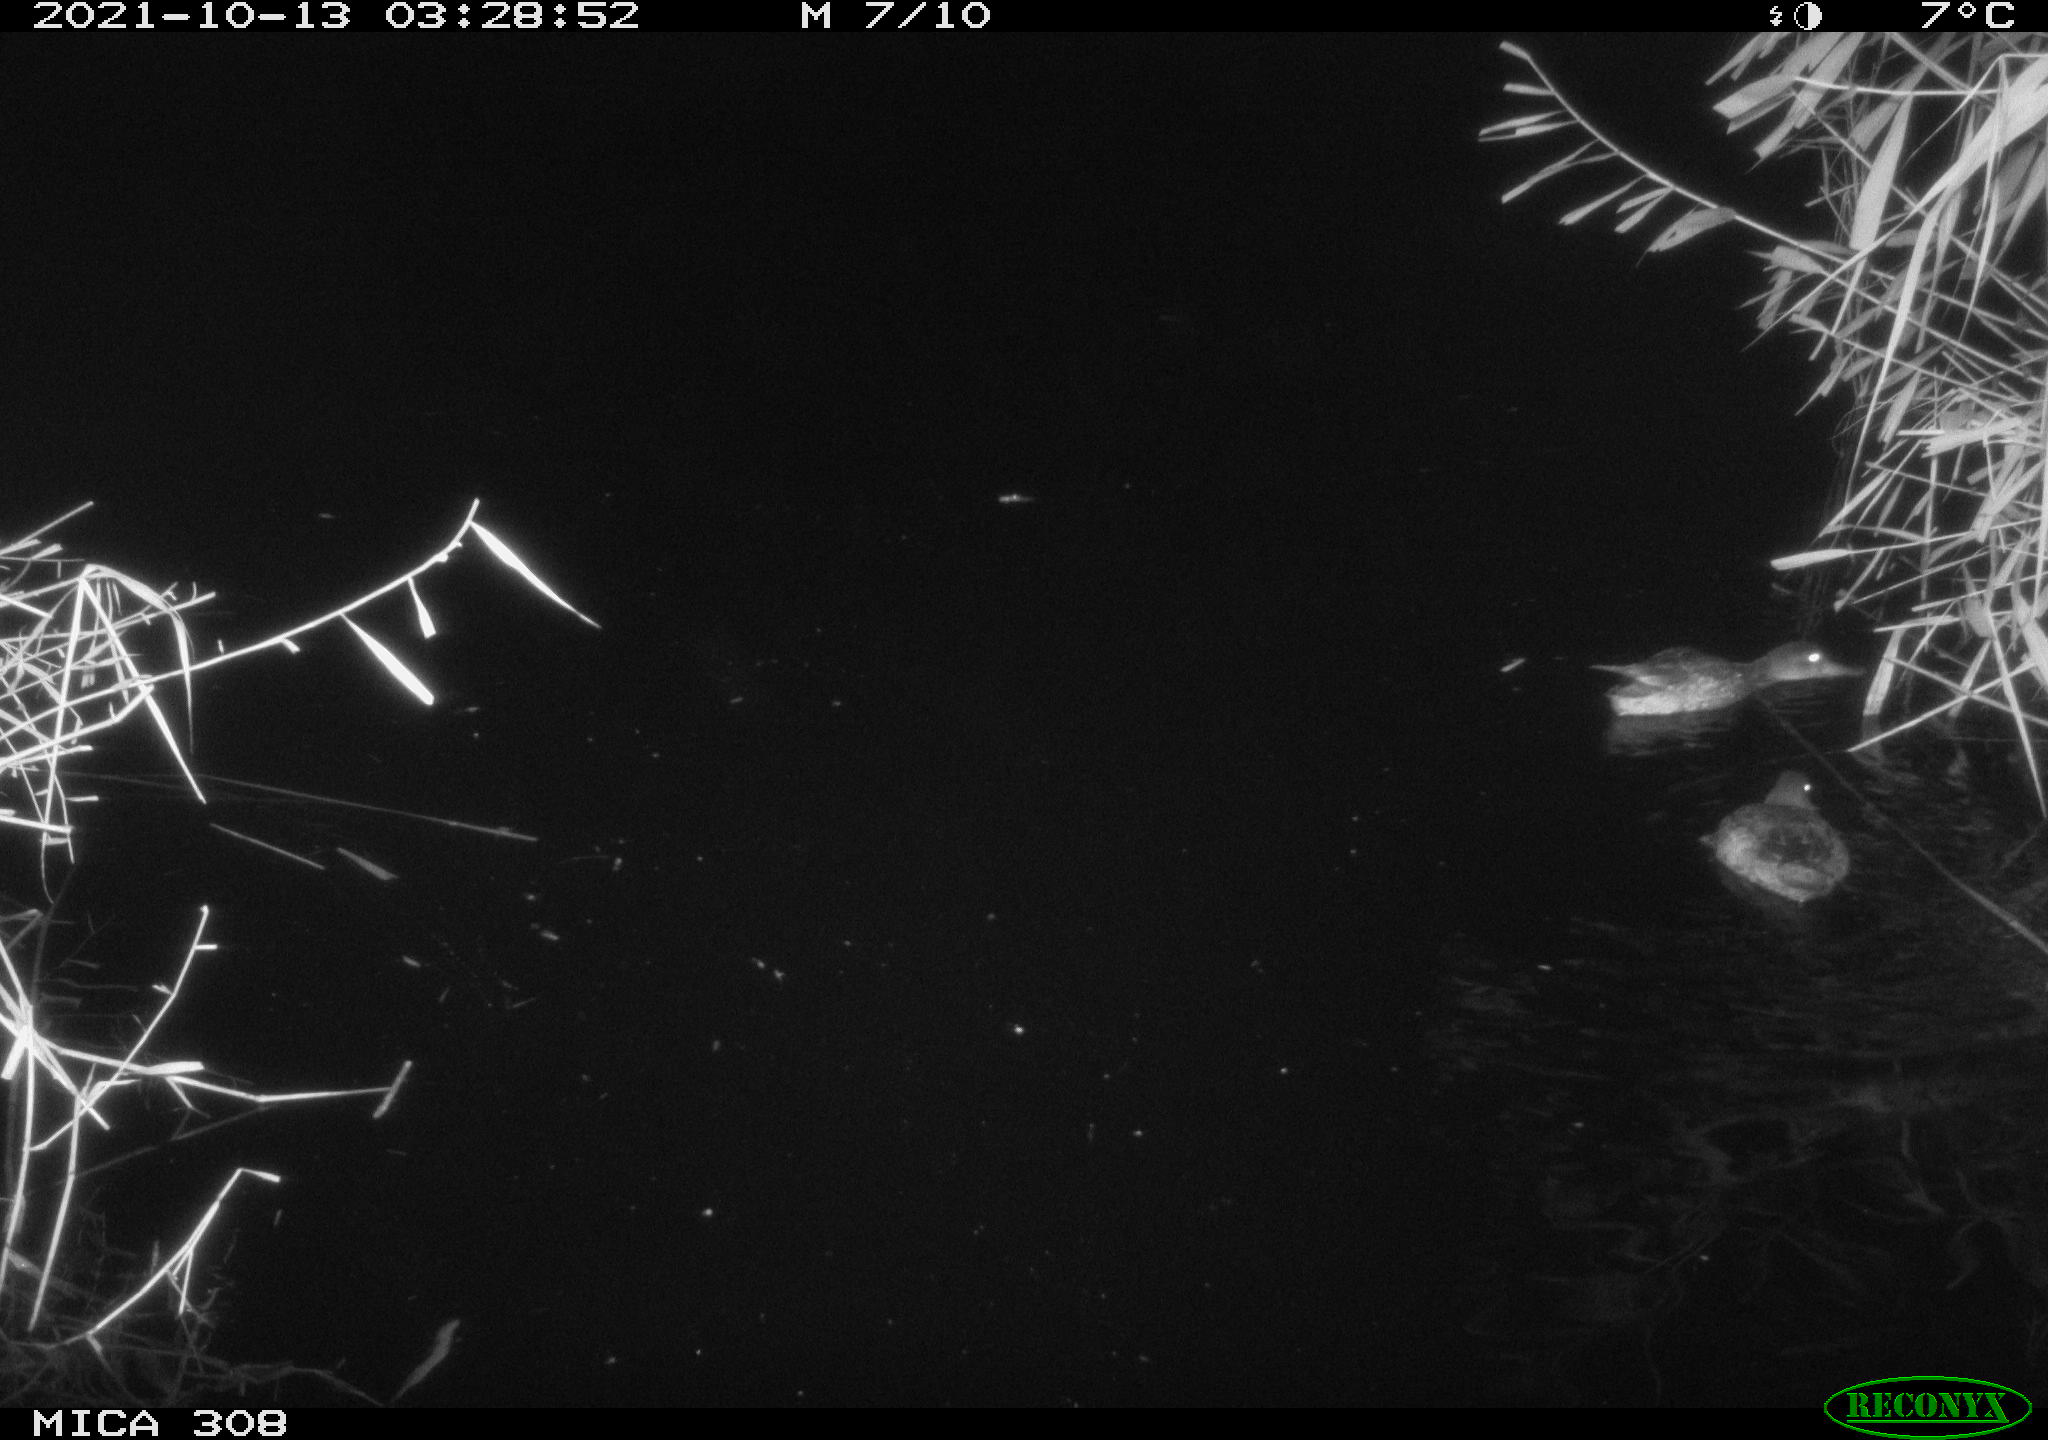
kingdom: Animalia
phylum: Chordata
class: Aves
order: Anseriformes
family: Anatidae
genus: Spatula
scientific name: Spatula clypeata
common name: Northern shoveler
